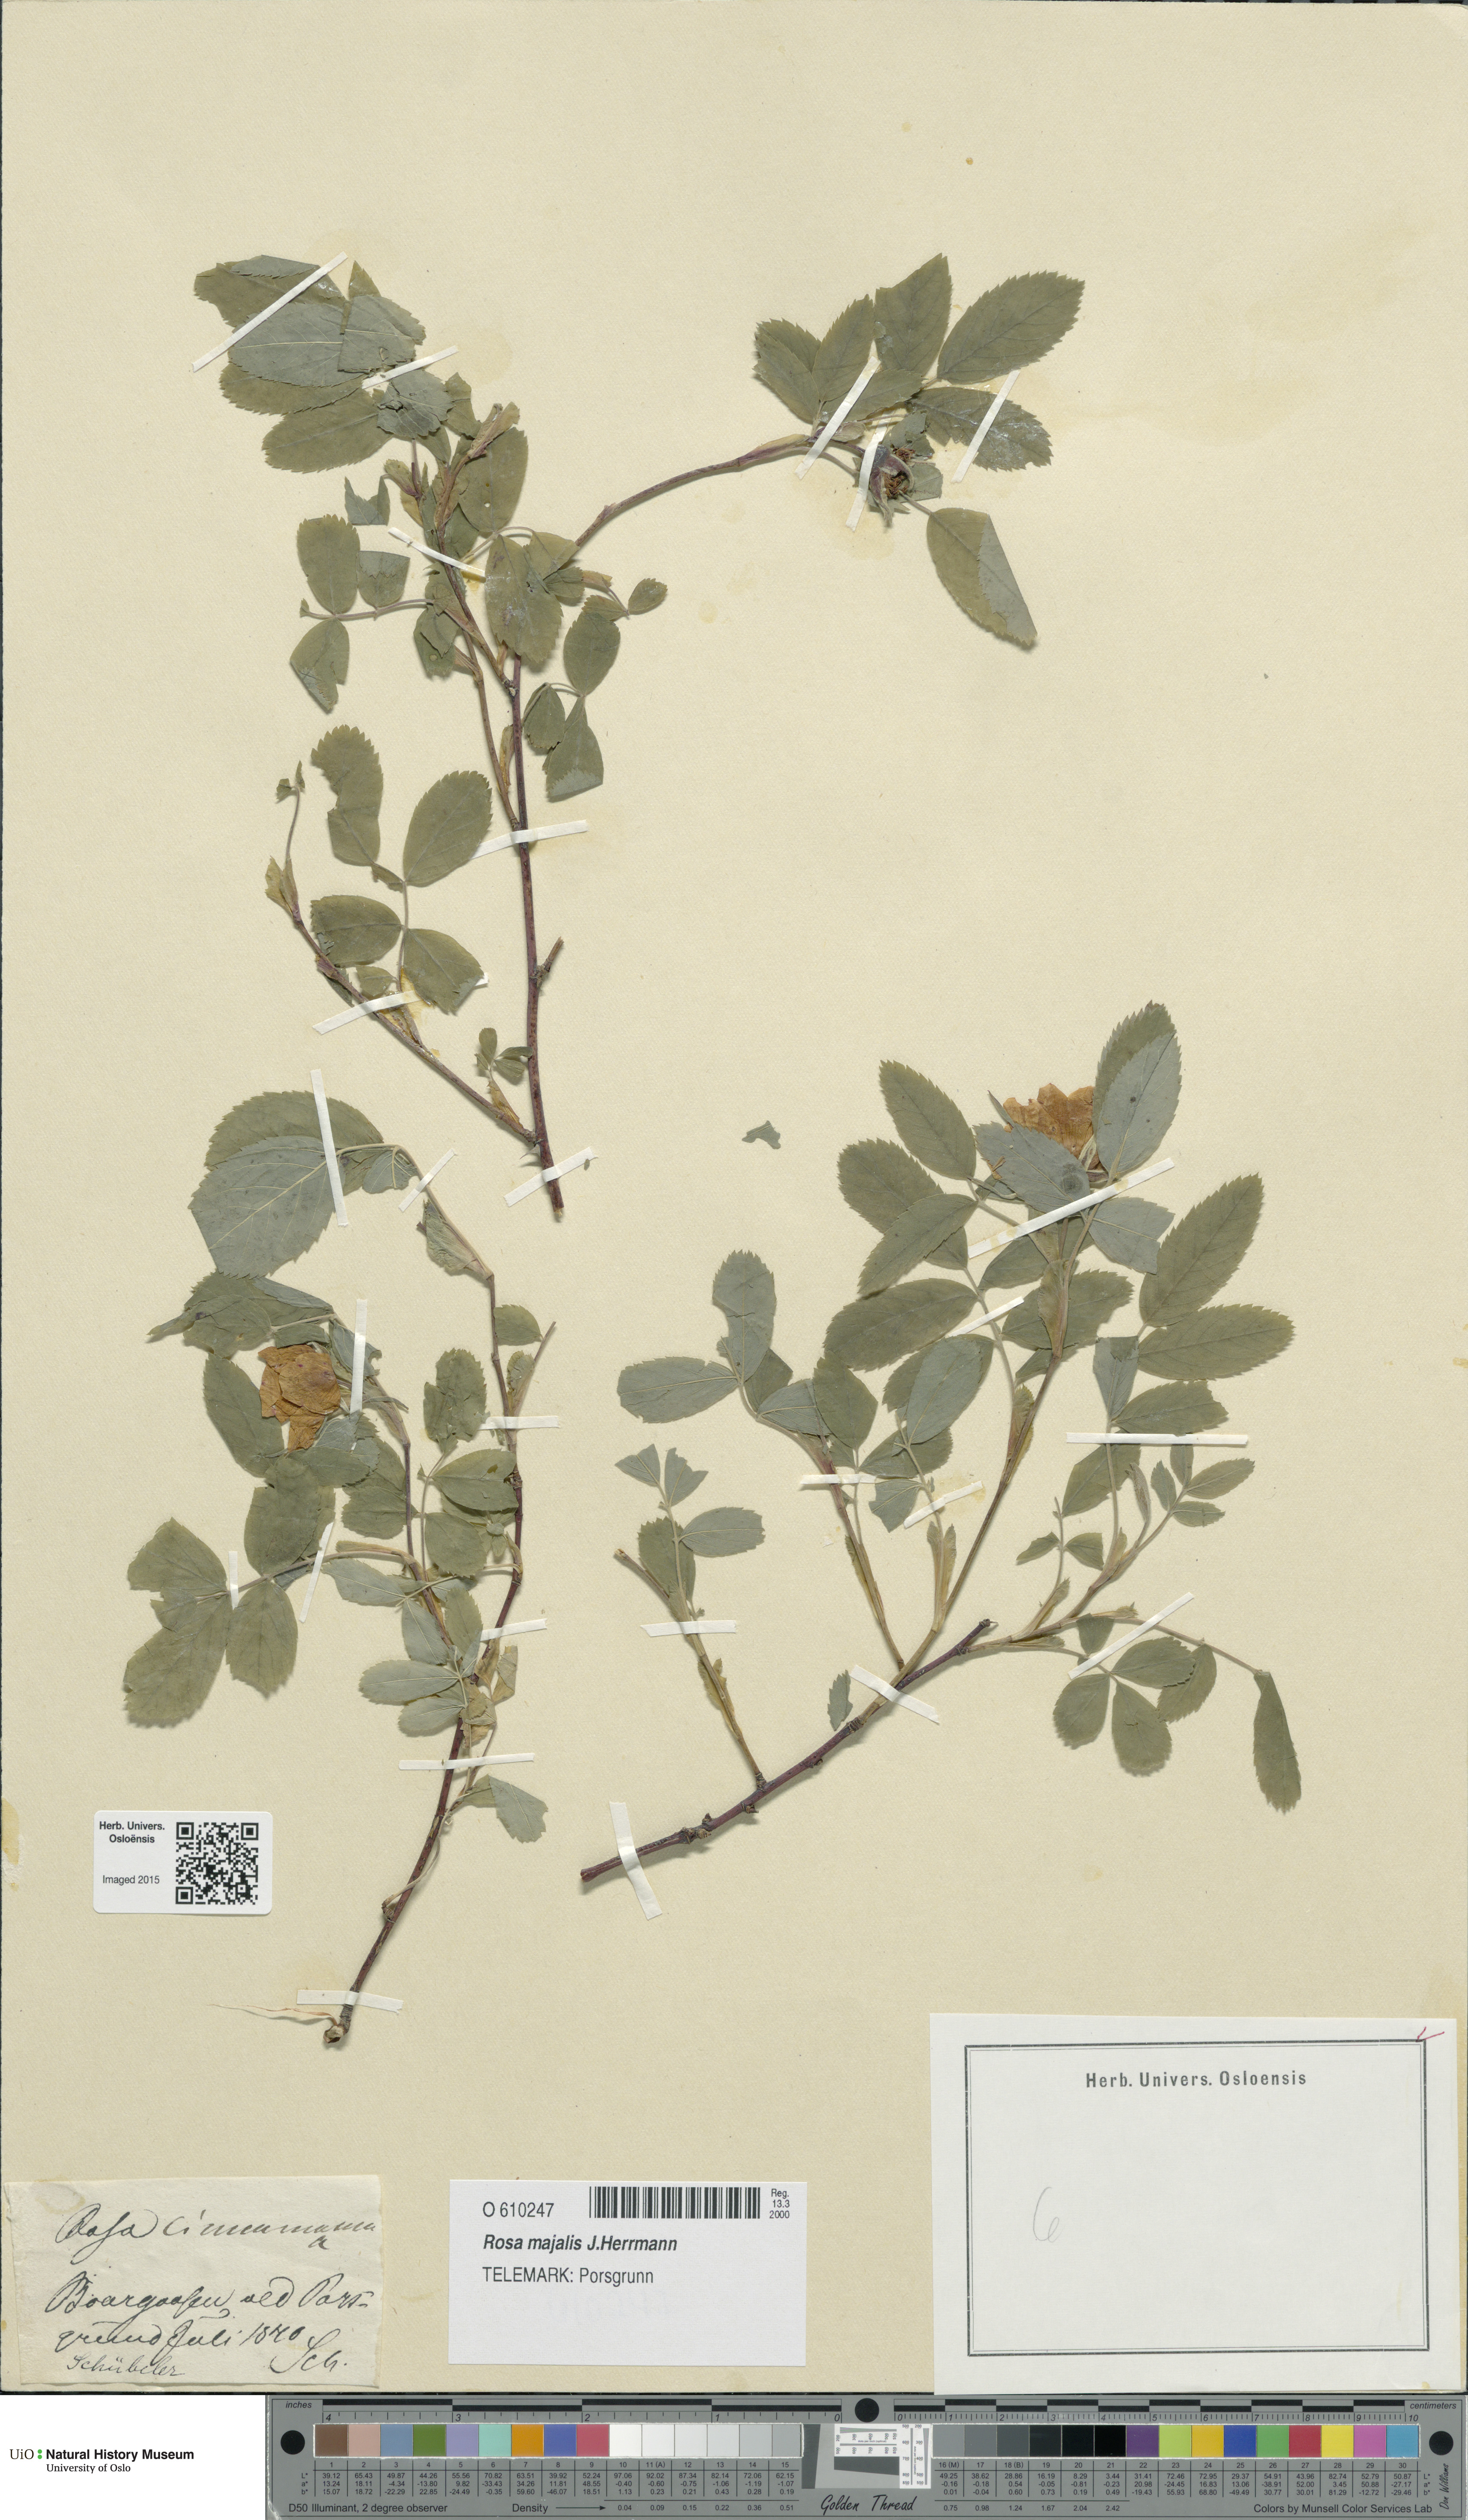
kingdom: Plantae
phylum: Tracheophyta
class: Magnoliopsida
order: Rosales
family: Rosaceae
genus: Rosa
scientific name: Rosa pendulina
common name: Alpine rose
